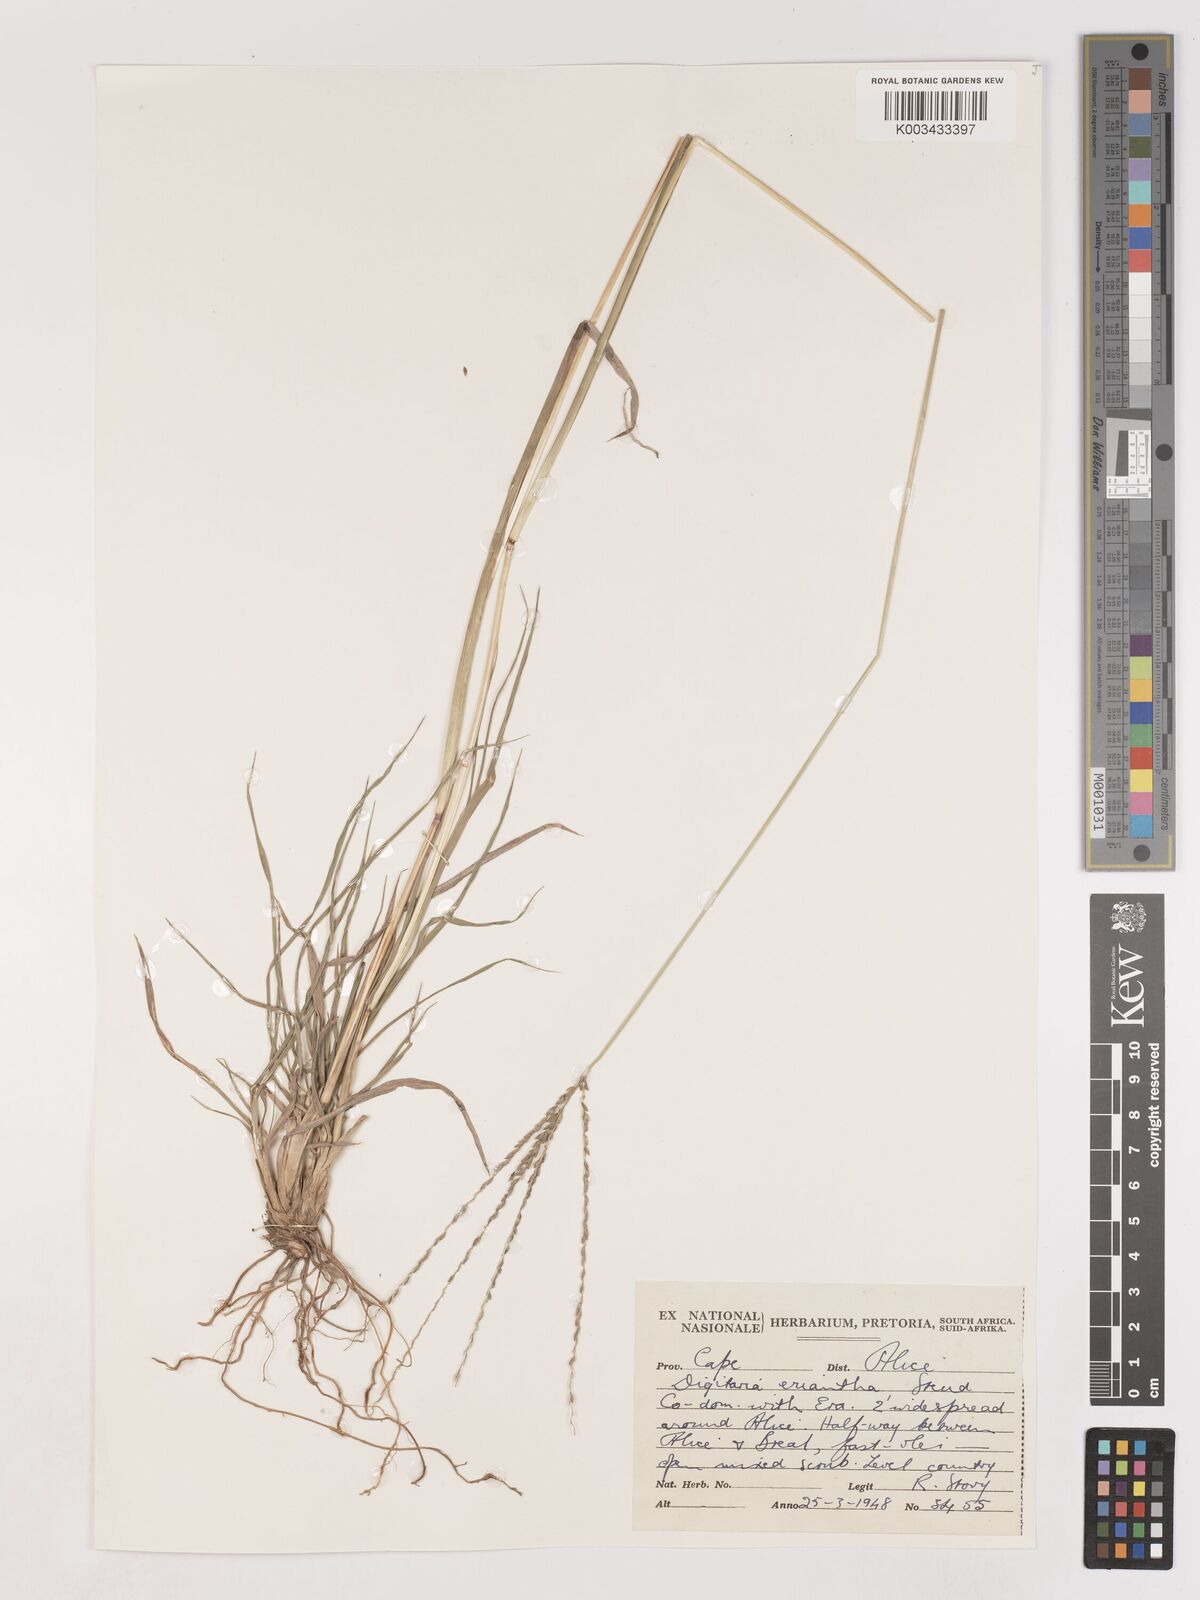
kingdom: Plantae
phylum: Tracheophyta
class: Liliopsida
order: Poales
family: Poaceae
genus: Digitaria
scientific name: Digitaria eriantha
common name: Digitgrass
